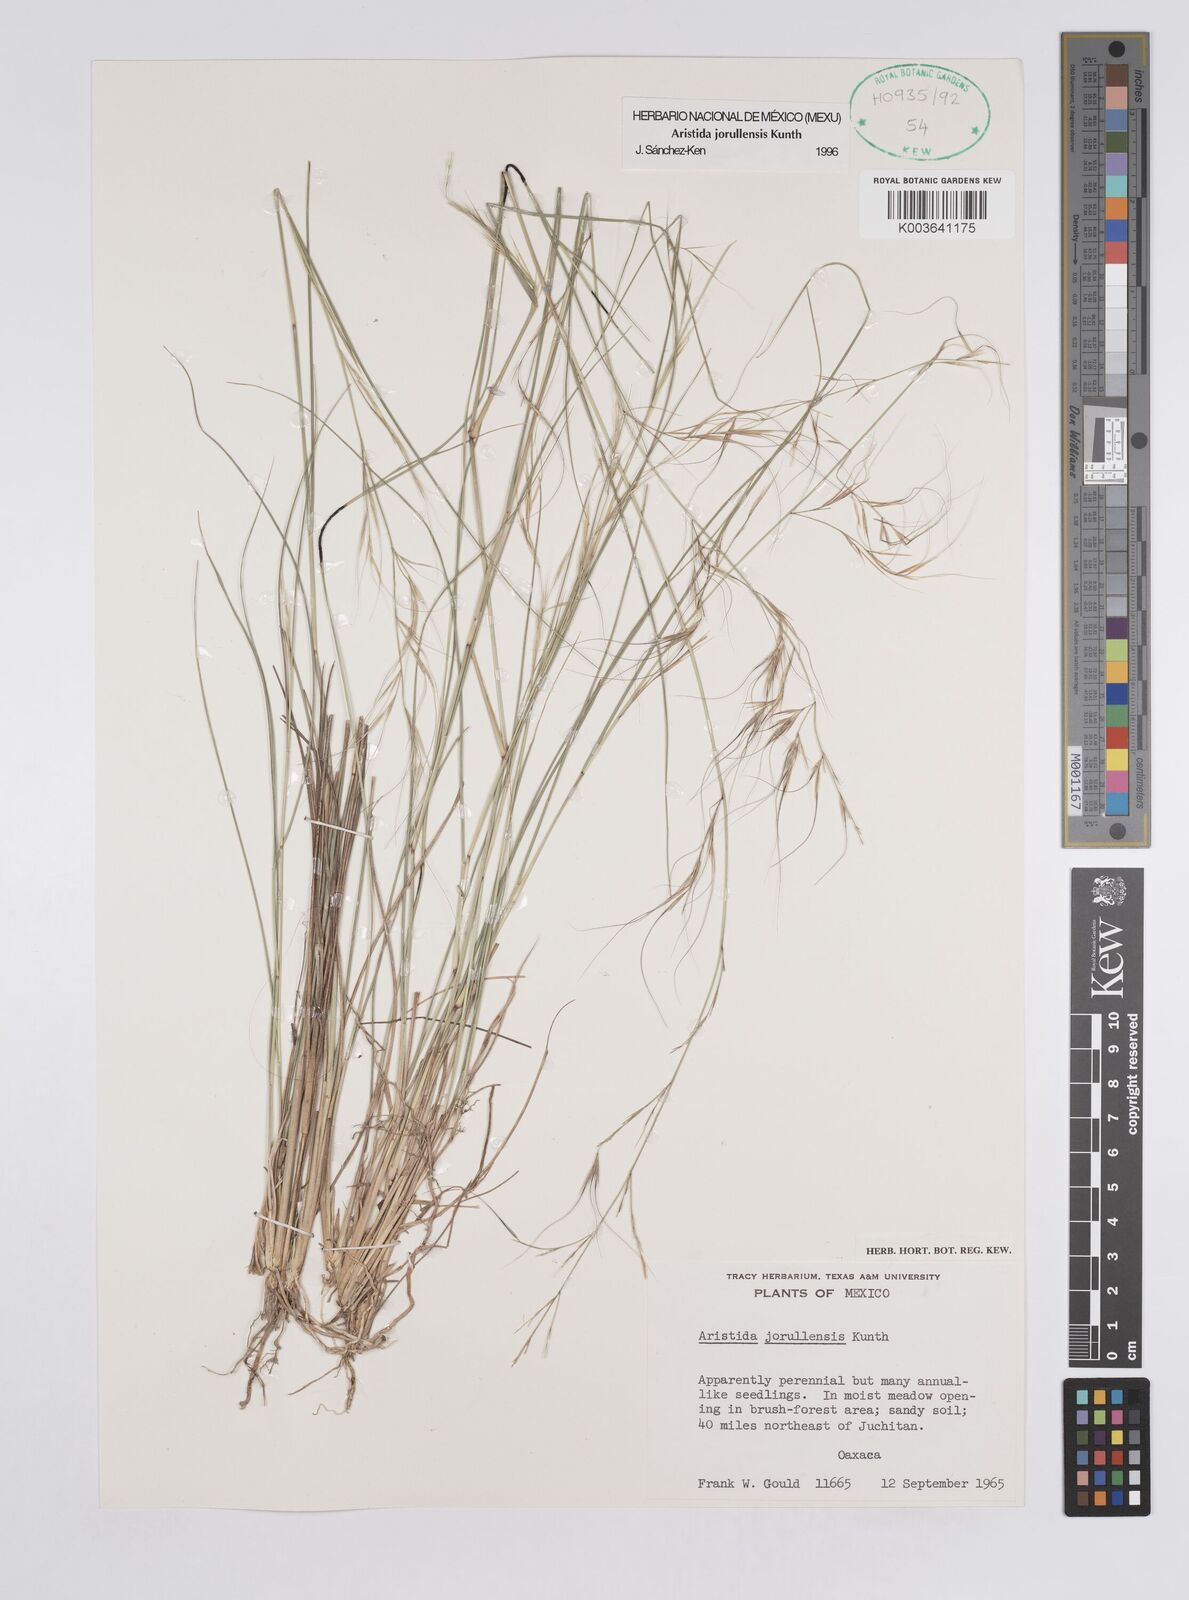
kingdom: Plantae
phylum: Tracheophyta
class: Liliopsida
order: Poales
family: Poaceae
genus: Aristida
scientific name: Aristida jorullensis
